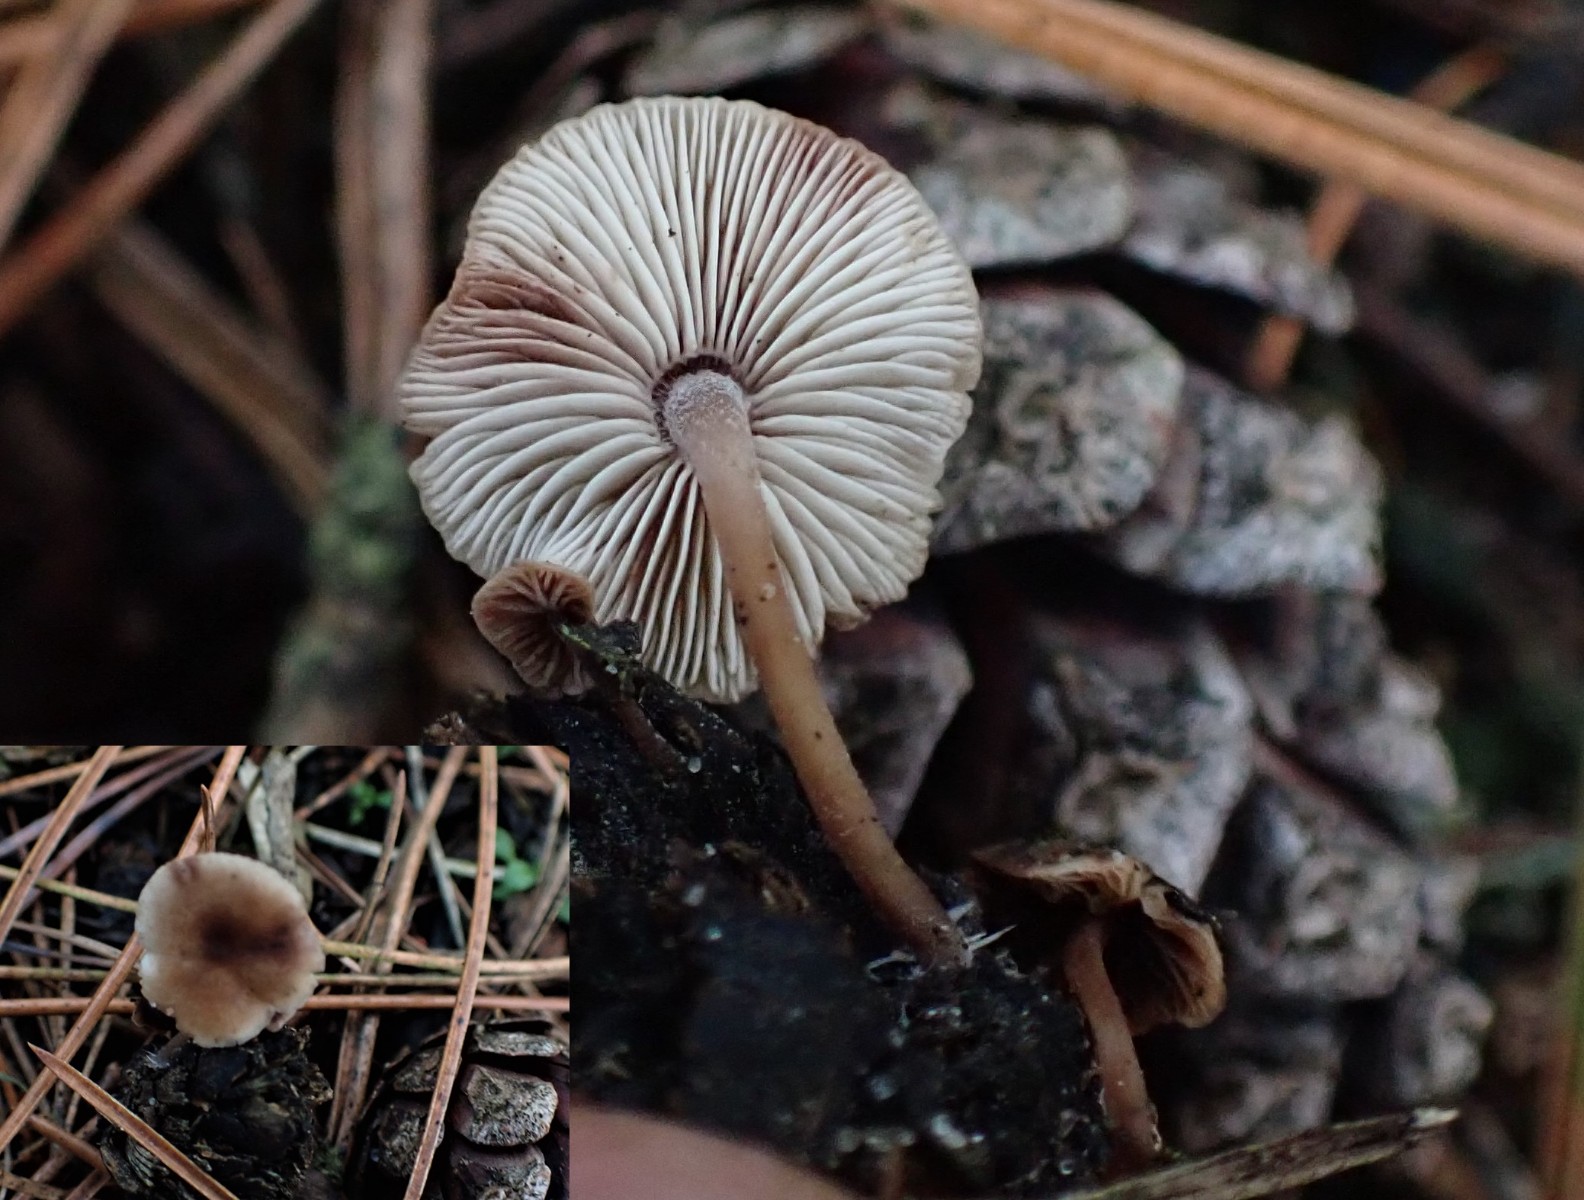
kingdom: Fungi
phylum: Basidiomycota
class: Agaricomycetes
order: Agaricales
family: Marasmiaceae
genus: Baeospora
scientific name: Baeospora myosura
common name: koglebruskhat
